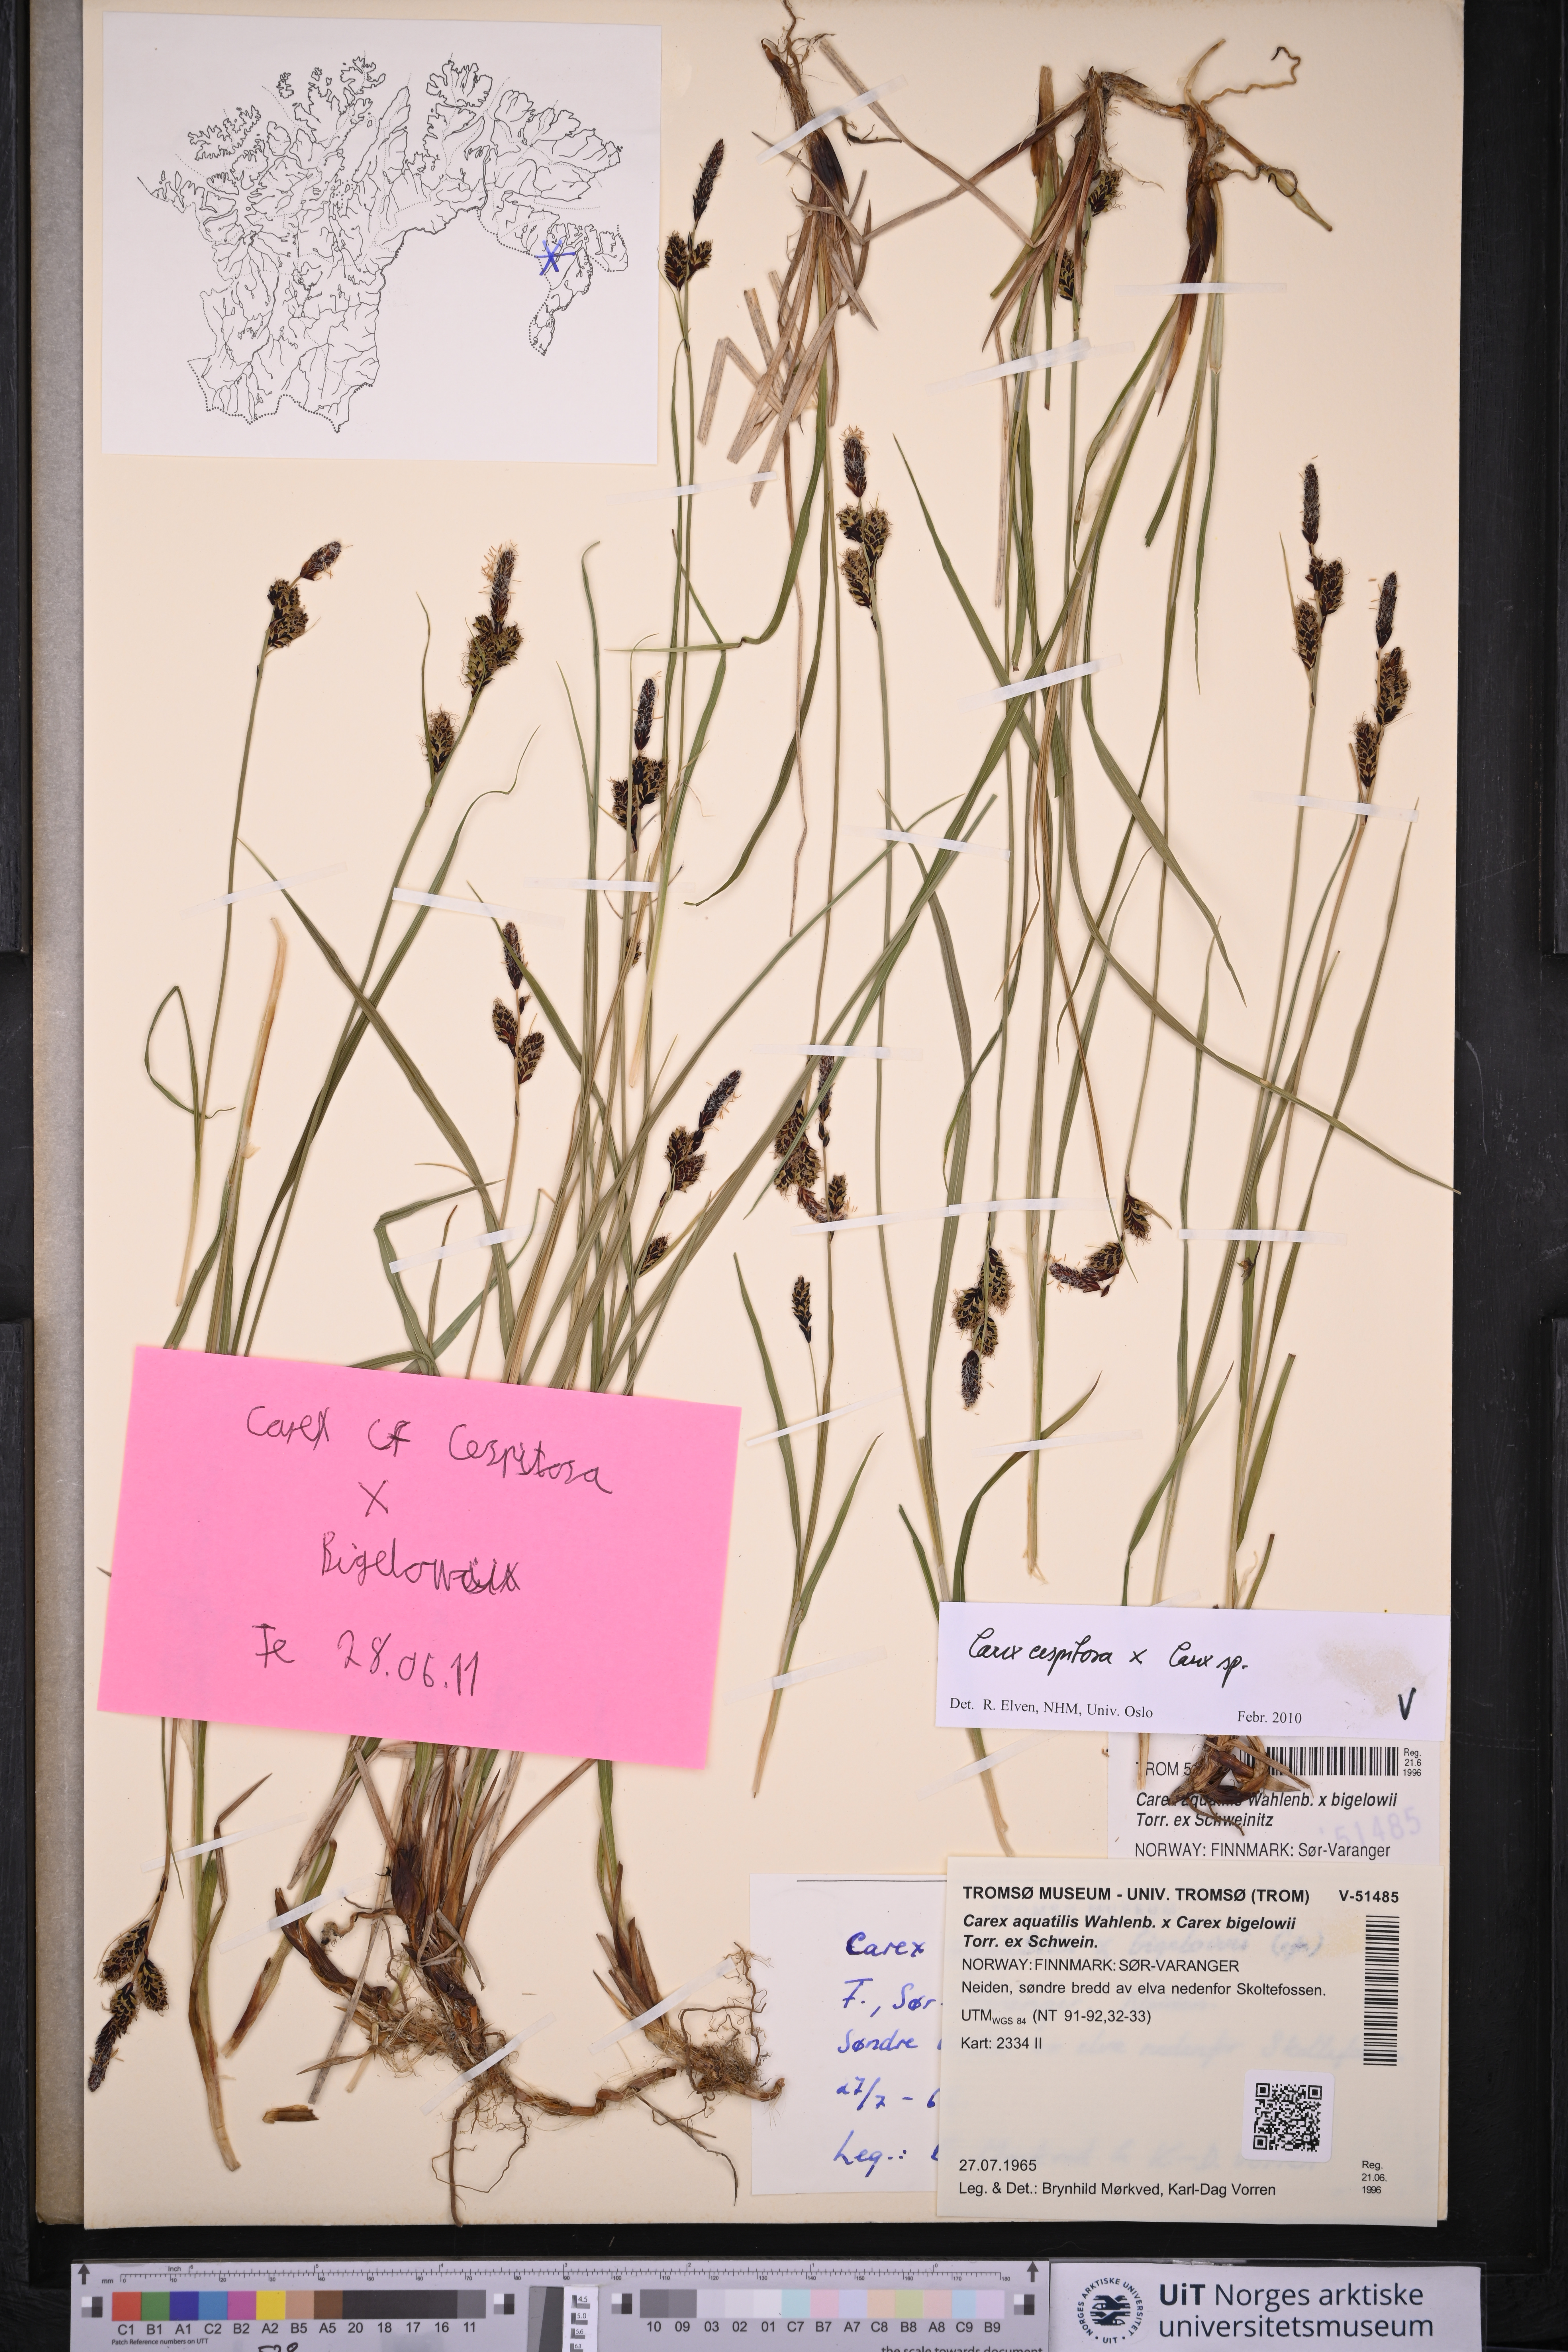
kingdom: Plantae
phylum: Tracheophyta
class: Liliopsida
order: Poales
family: Cyperaceae
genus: Carex
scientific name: Carex cespitosa
